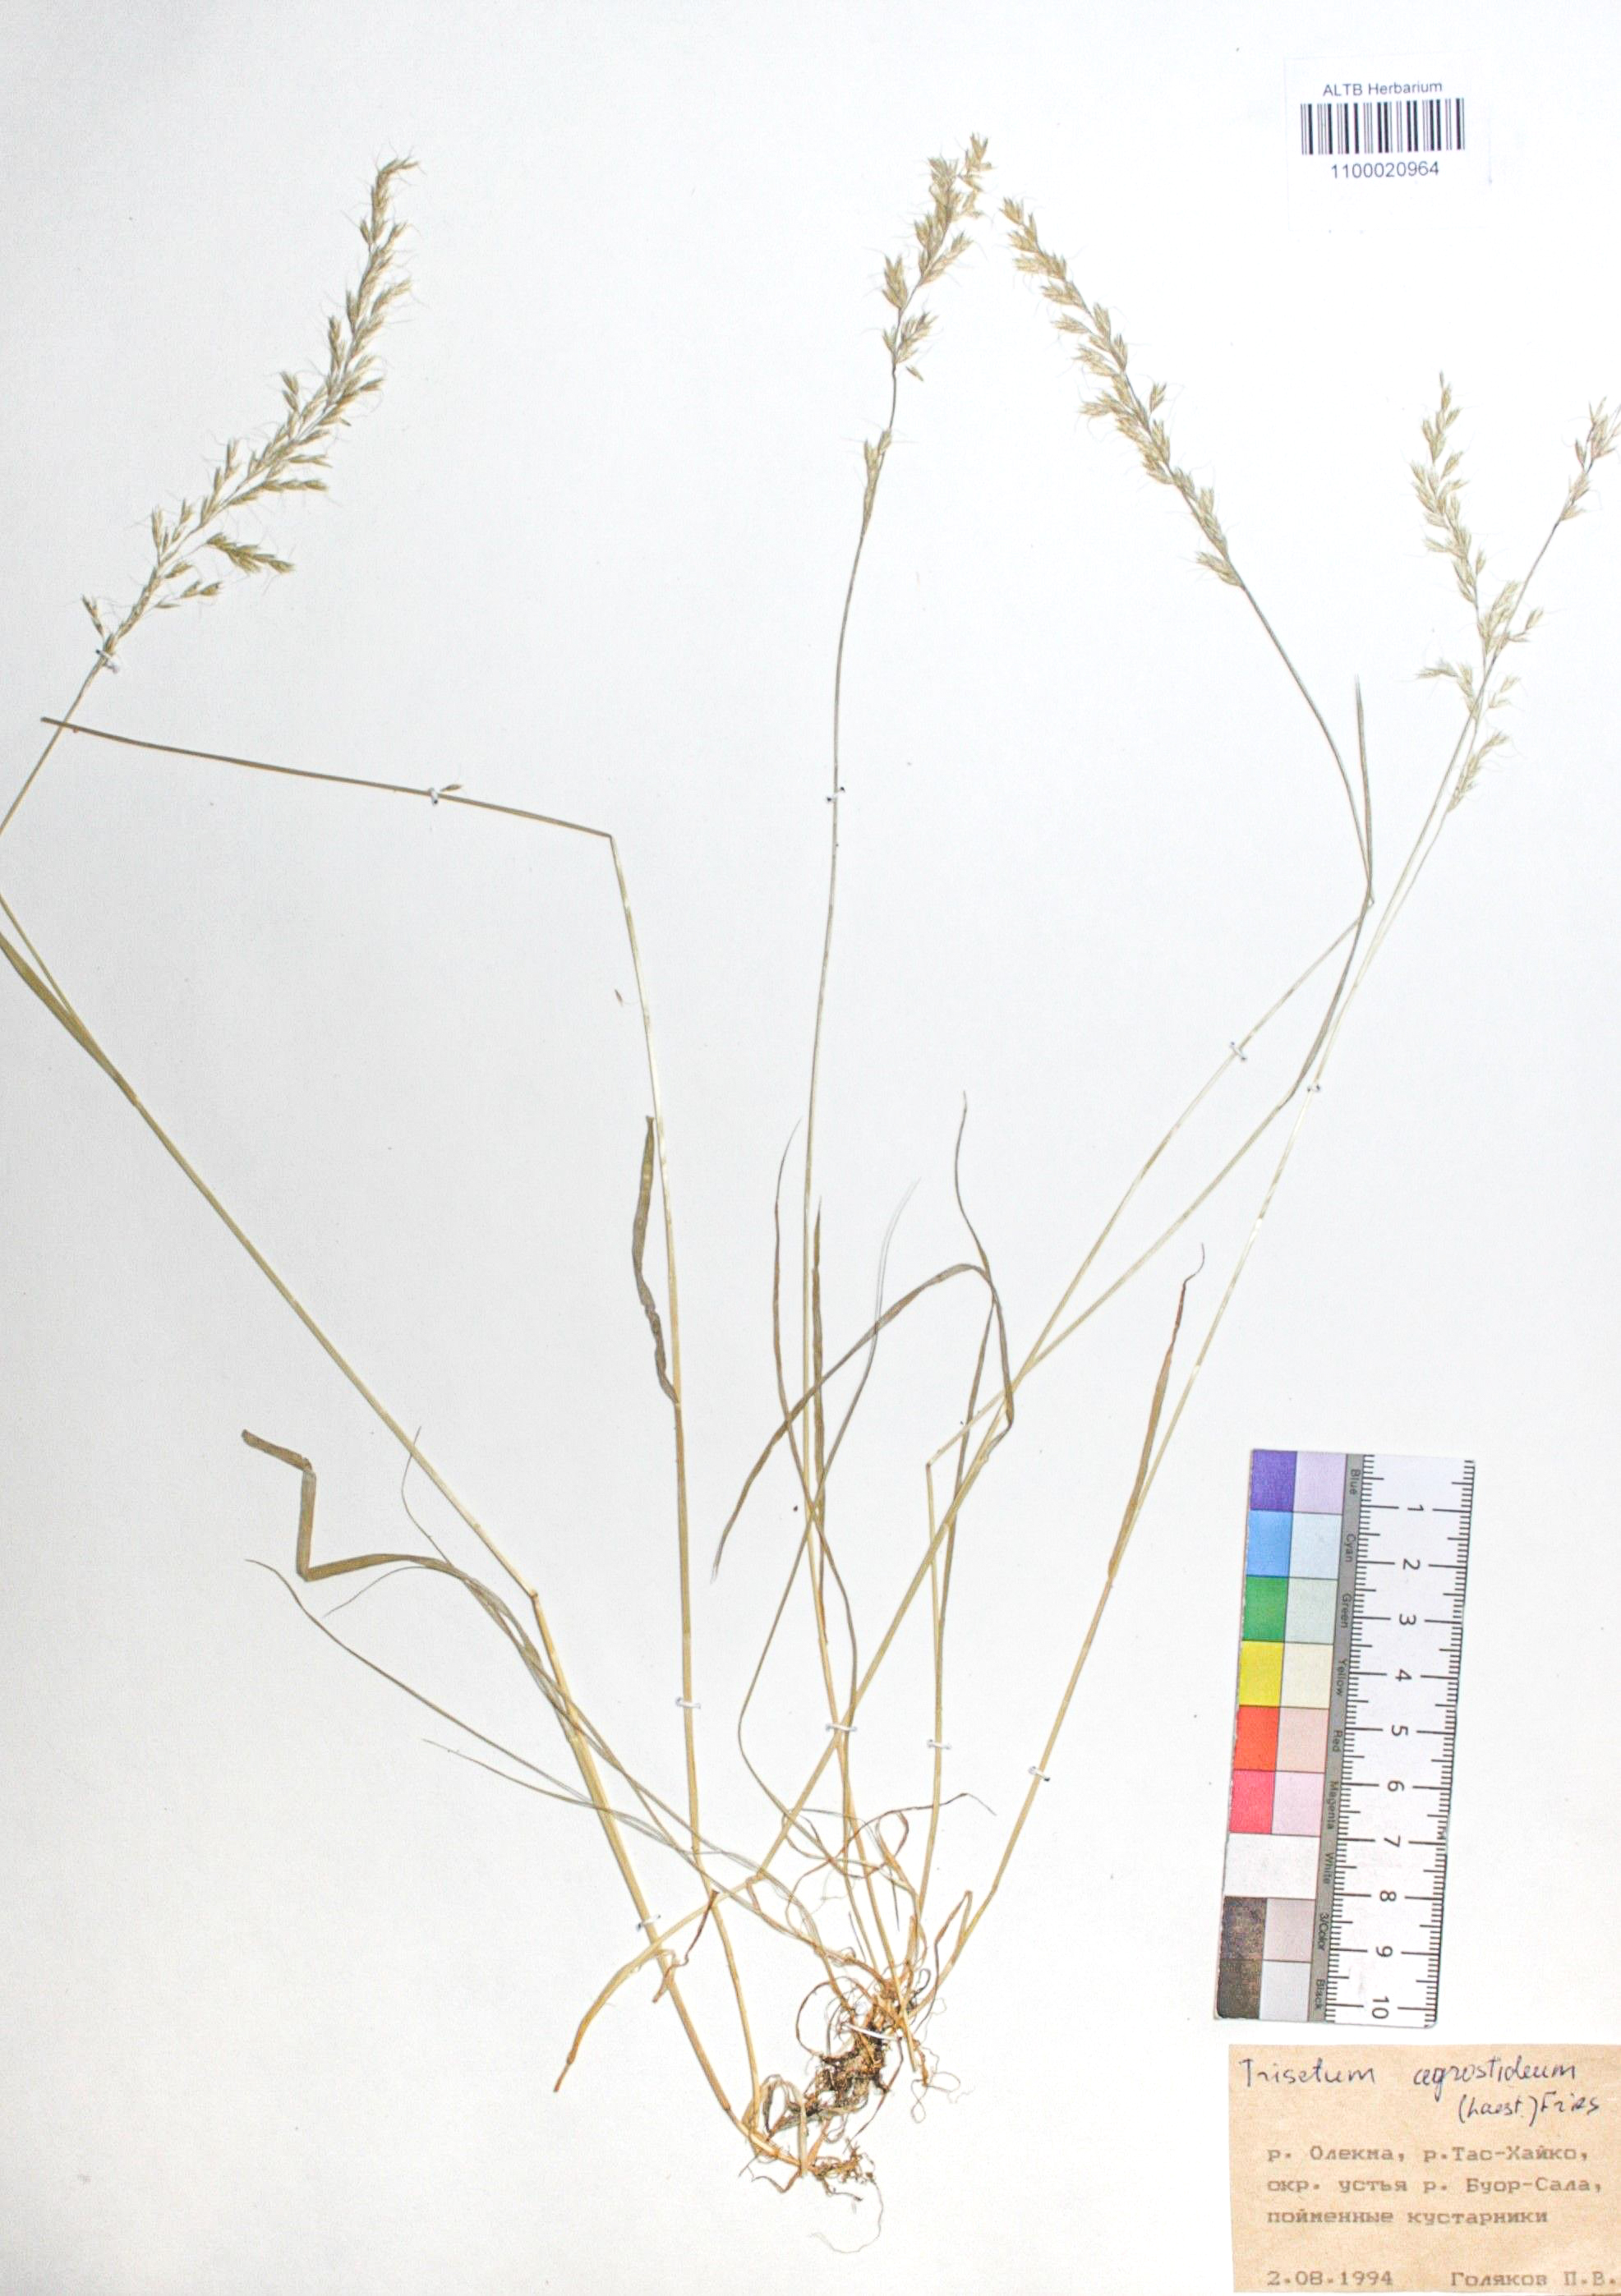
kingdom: Plantae
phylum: Tracheophyta
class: Liliopsida
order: Poales
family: Poaceae
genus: Koeleria
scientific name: Koeleria subalpestris
